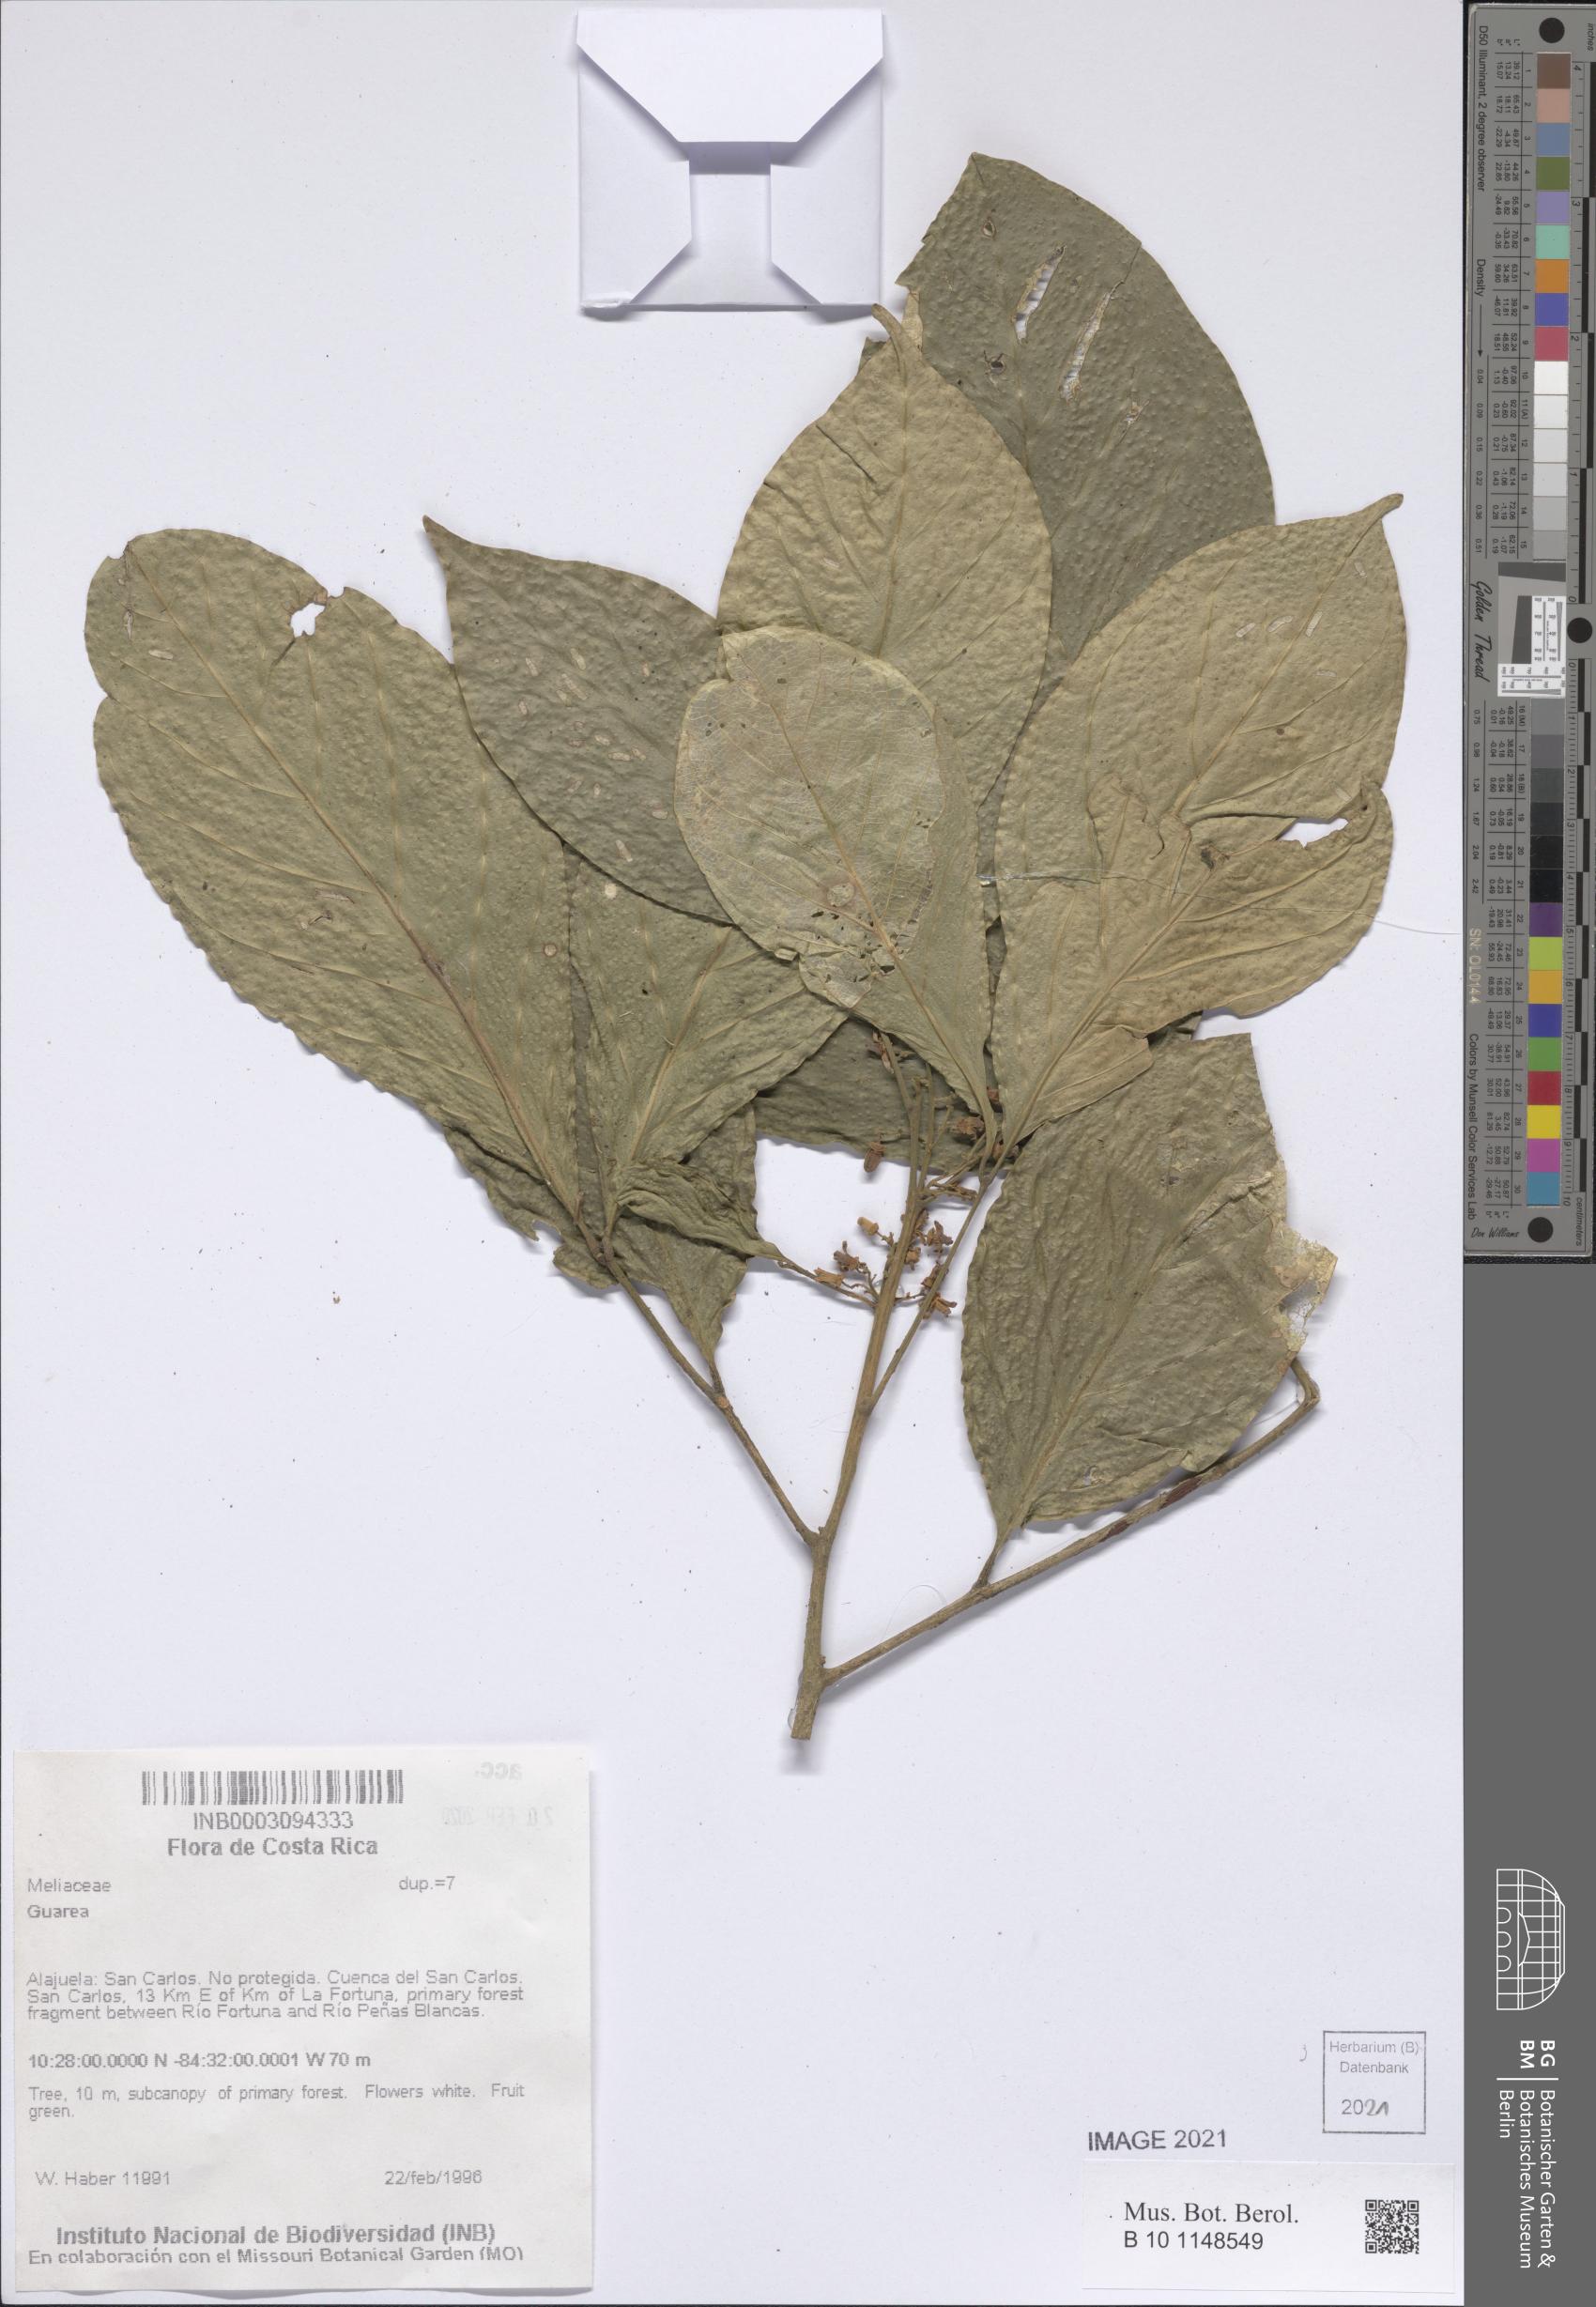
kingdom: Plantae
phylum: Tracheophyta
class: Magnoliopsida
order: Sapindales
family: Meliaceae
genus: Guarea
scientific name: Guarea
